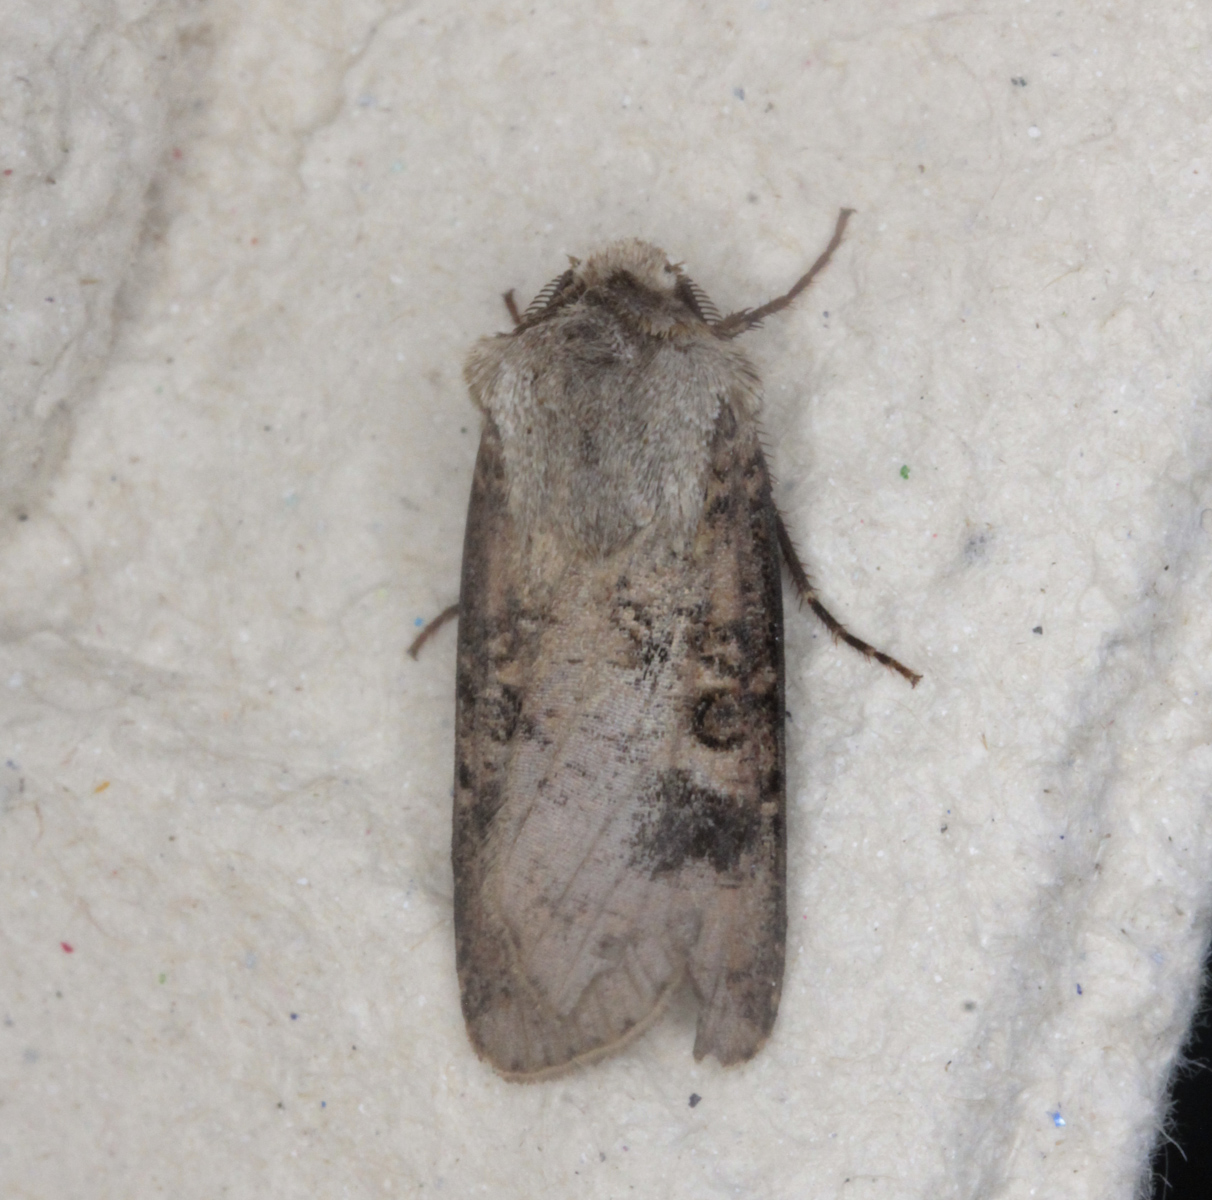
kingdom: Animalia
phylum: Arthropoda
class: Insecta
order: Lepidoptera
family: Noctuidae
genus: Agrotis
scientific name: Agrotis clavis
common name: Heart and club
